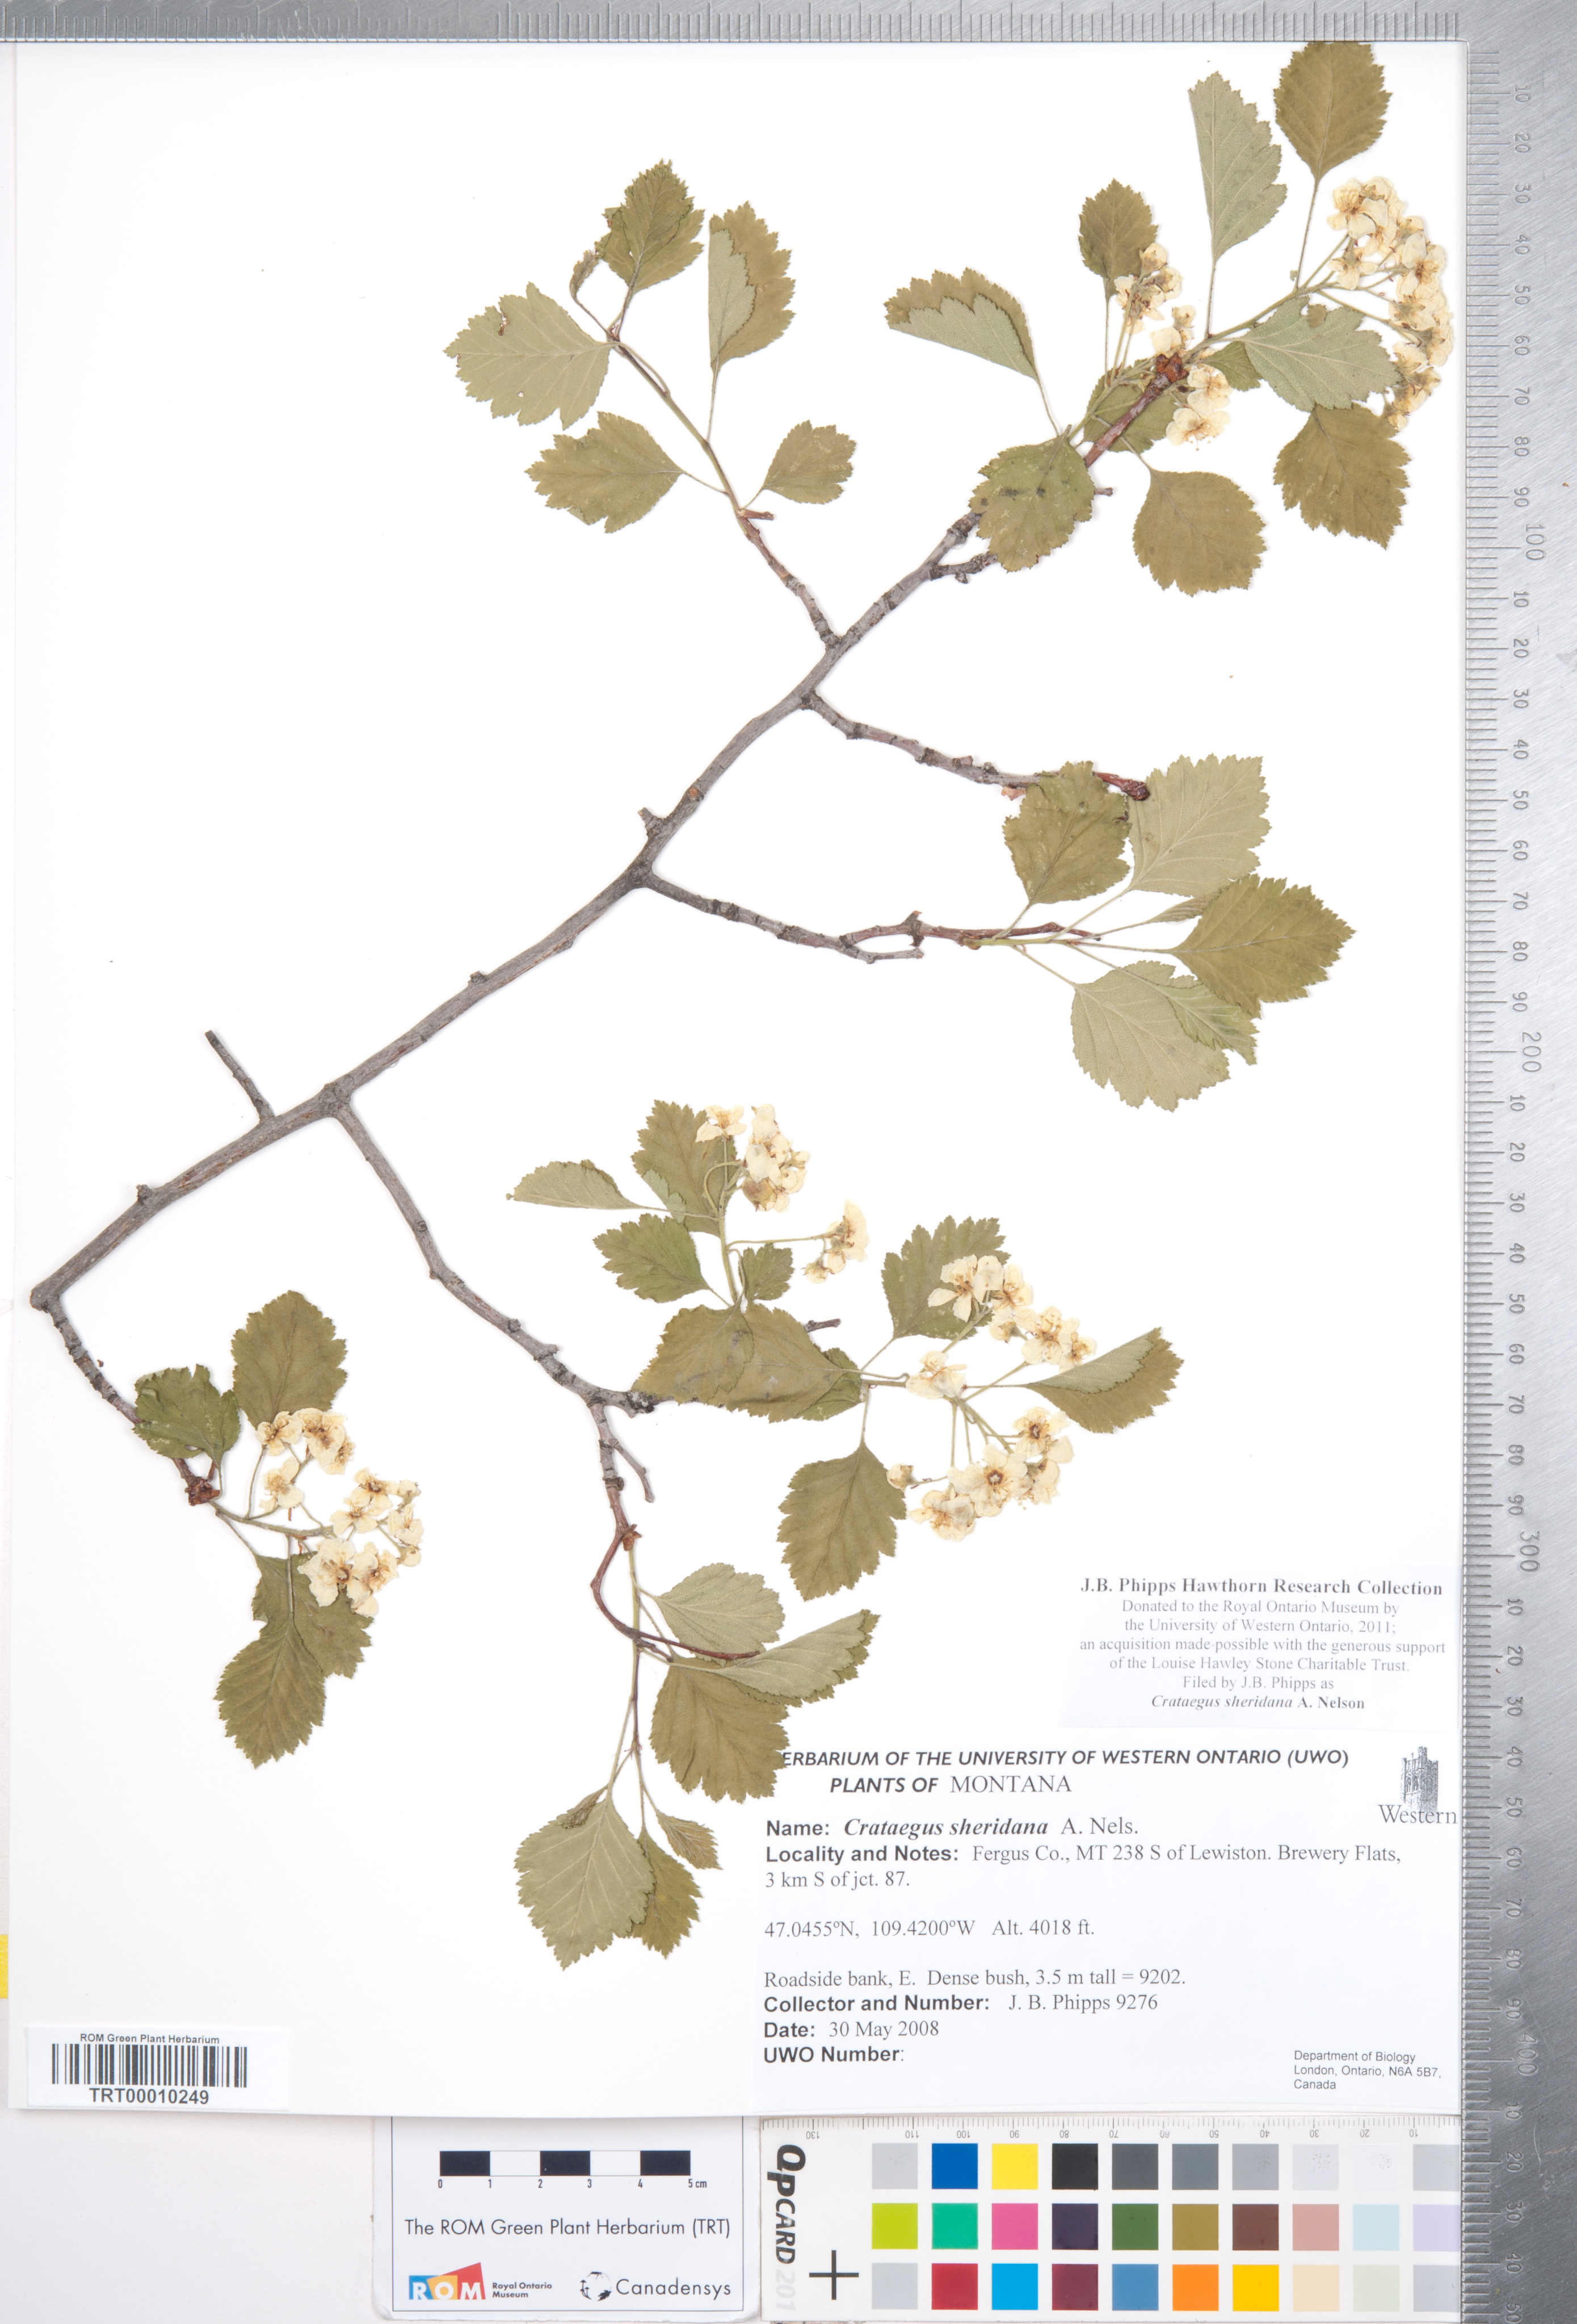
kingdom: Plantae
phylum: Tracheophyta
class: Magnoliopsida
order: Rosales
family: Rosaceae
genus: Crataegus
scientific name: Crataegus chrysocarpa
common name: Fire-berry hawthorn
